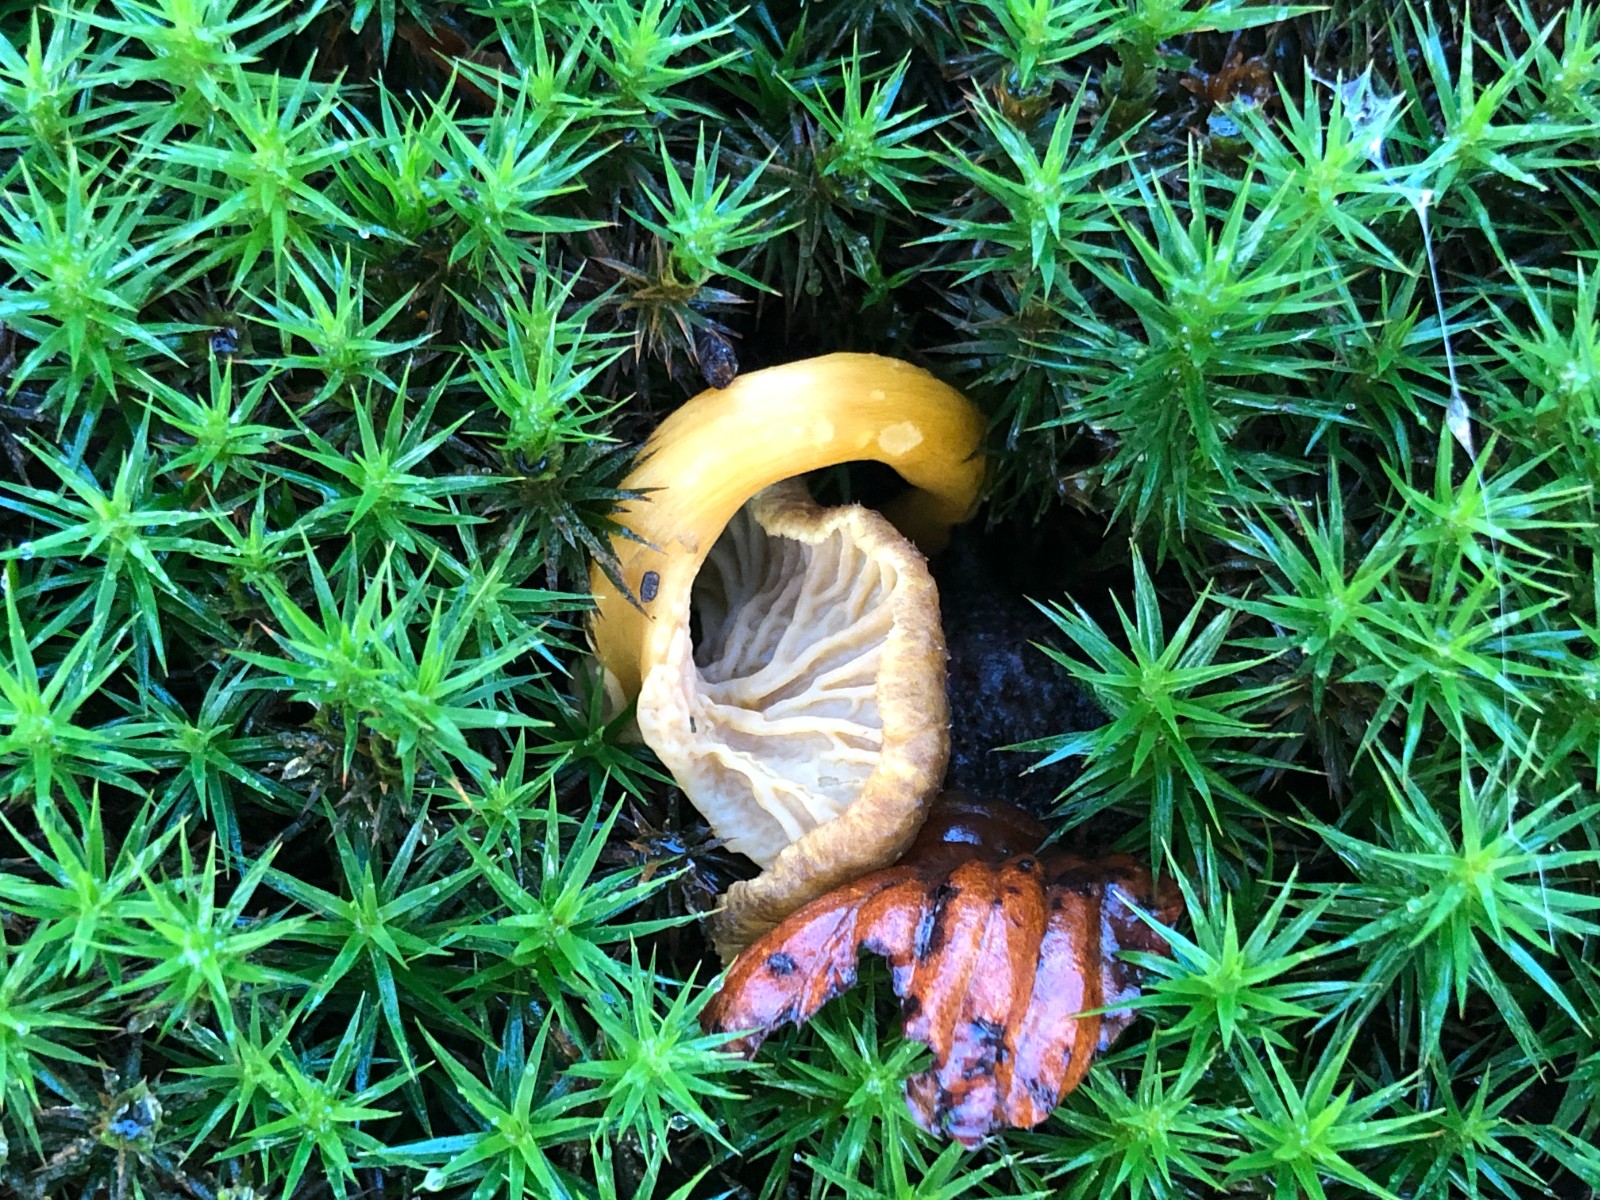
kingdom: Fungi
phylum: Basidiomycota
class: Agaricomycetes
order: Cantharellales
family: Hydnaceae
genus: Craterellus
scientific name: Craterellus tubaeformis
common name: tragt-kantarel
